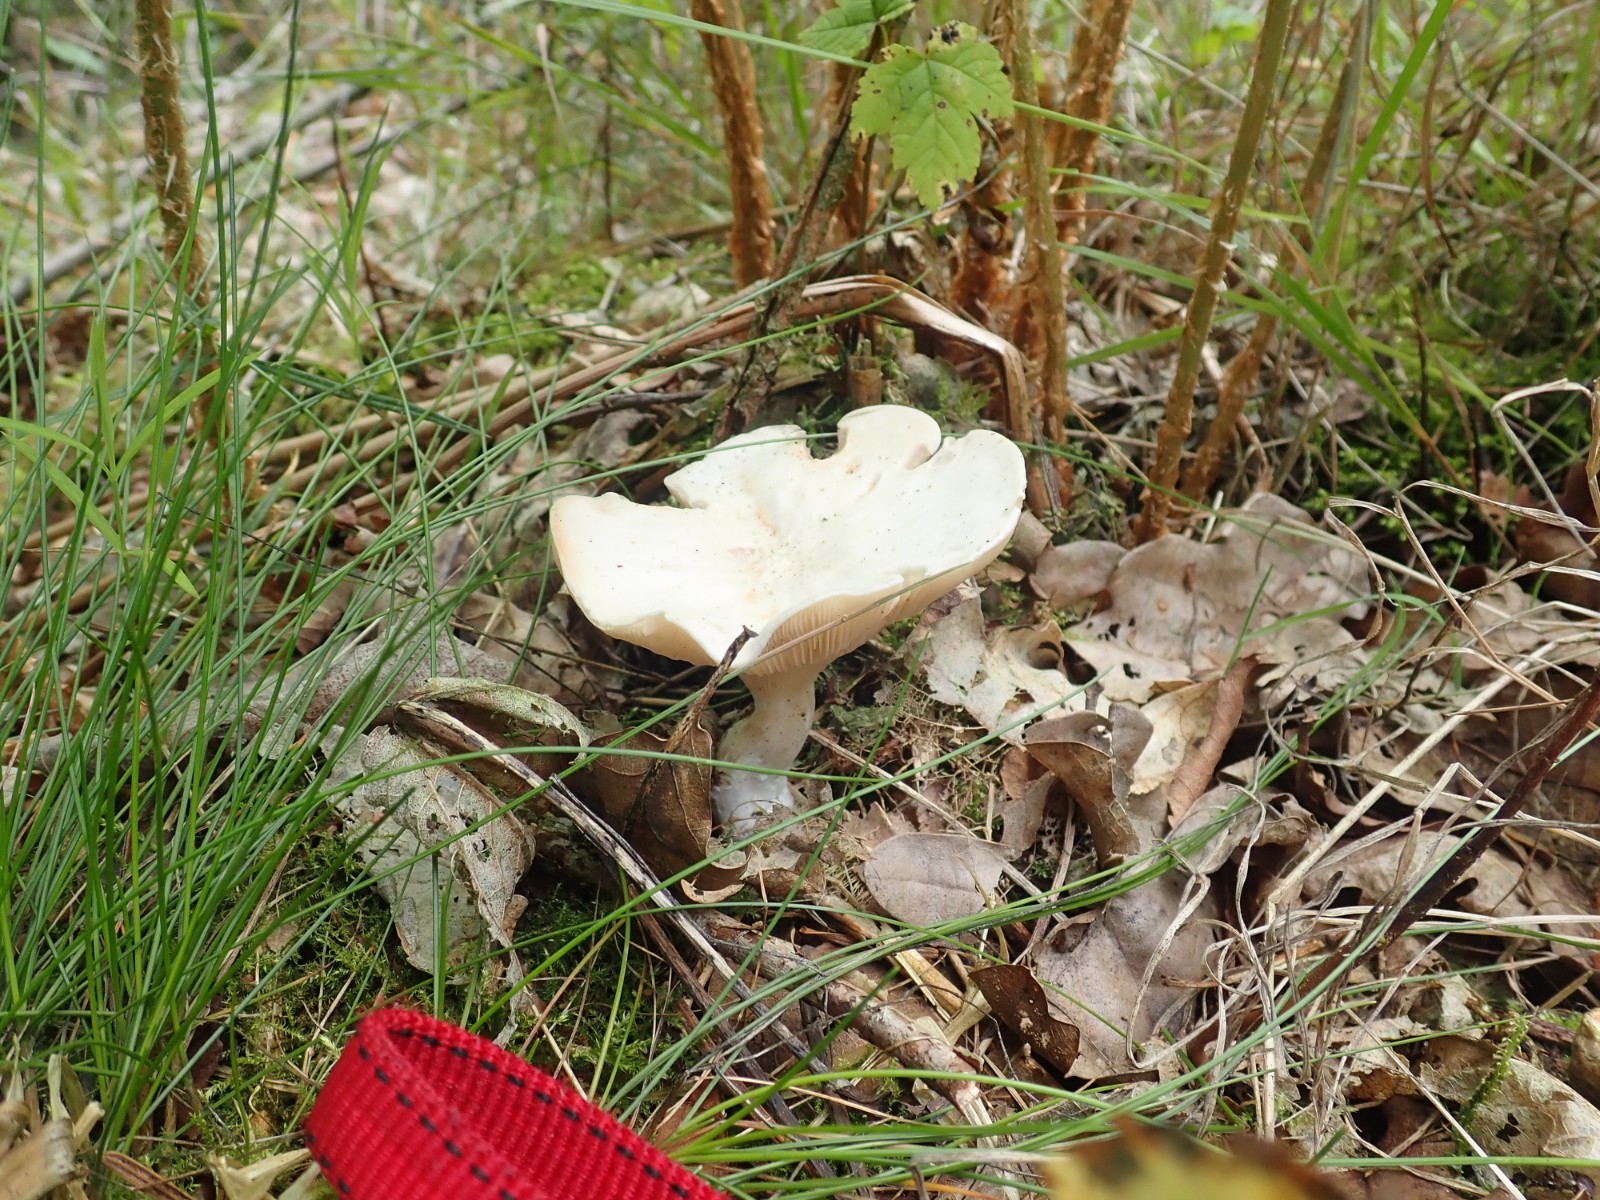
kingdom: Fungi
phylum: Basidiomycota
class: Agaricomycetes
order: Agaricales
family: Entolomataceae
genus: Clitopilus
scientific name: Clitopilus prunulus
